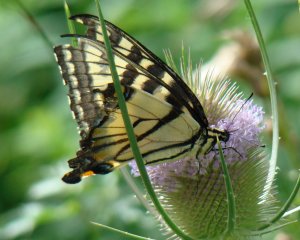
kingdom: Animalia
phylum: Arthropoda
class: Insecta
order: Lepidoptera
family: Papilionidae
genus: Pterourus
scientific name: Pterourus glaucus
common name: Eastern Tiger Swallowtail
